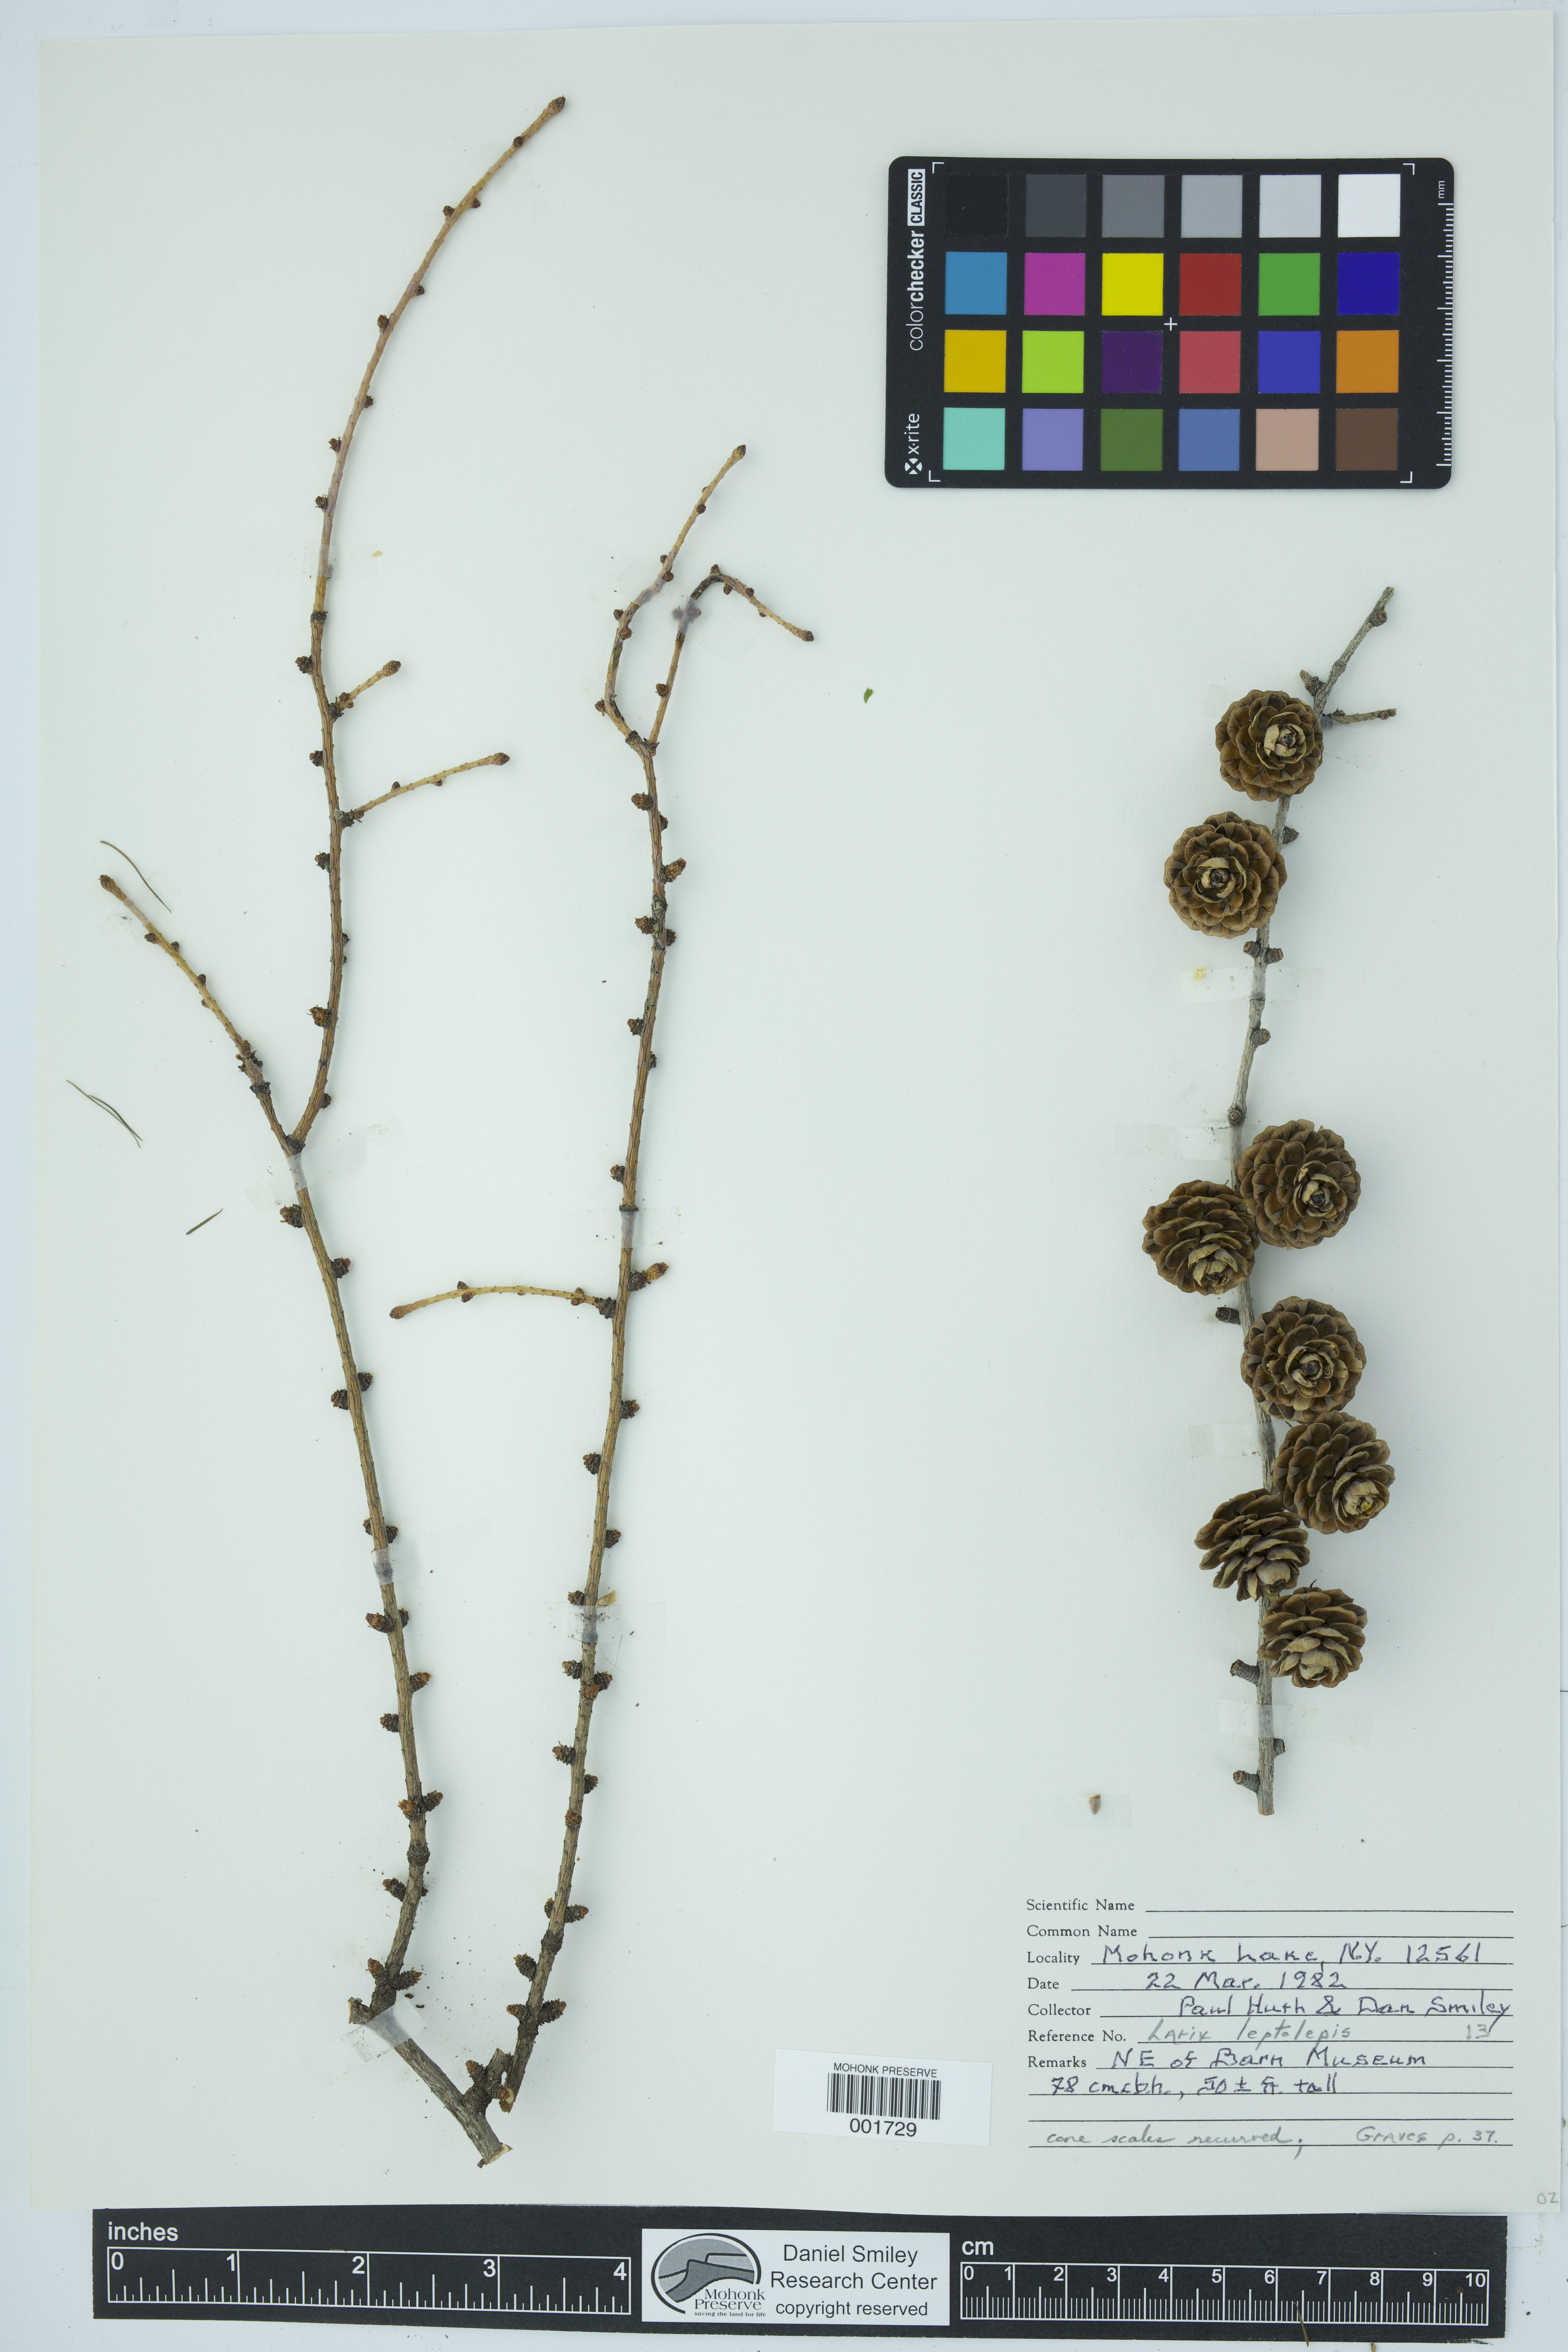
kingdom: Plantae
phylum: Tracheophyta
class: Pinopsida
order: Pinales
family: Pinaceae
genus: Larix
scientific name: Larix kaempferi
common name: Japanese larch
